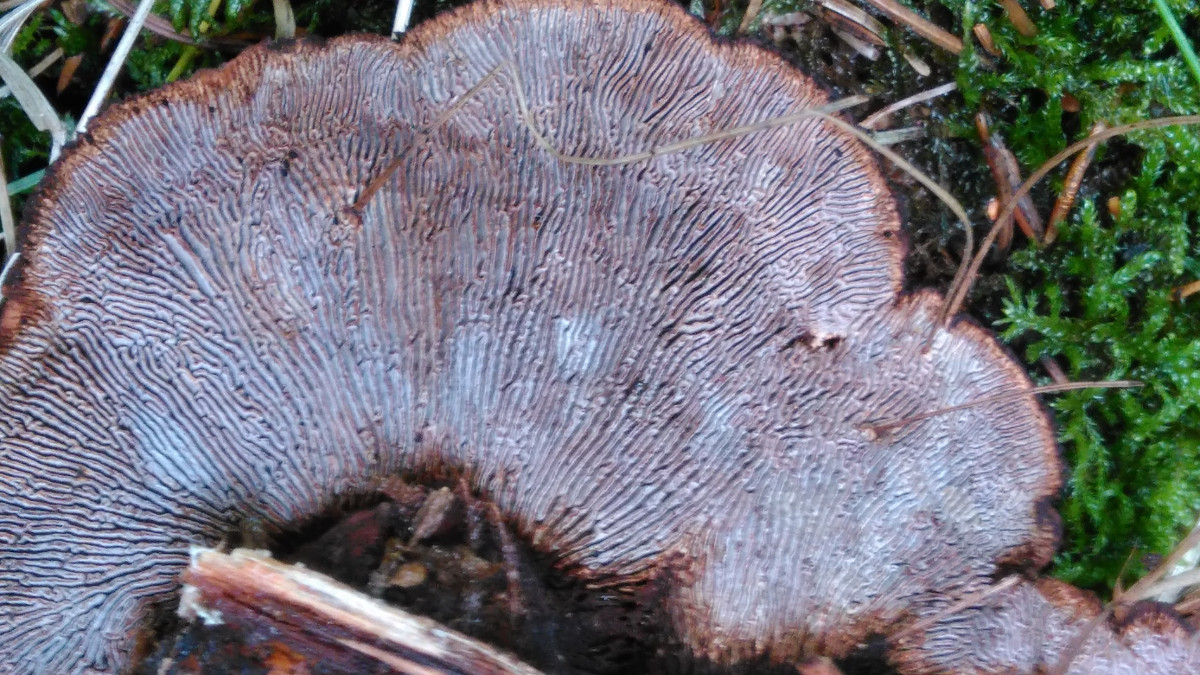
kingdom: Fungi
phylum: Basidiomycota
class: Agaricomycetes
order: Gloeophyllales
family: Gloeophyllaceae
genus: Gloeophyllum
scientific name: Gloeophyllum sepiarium
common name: fyrre-korkhat
